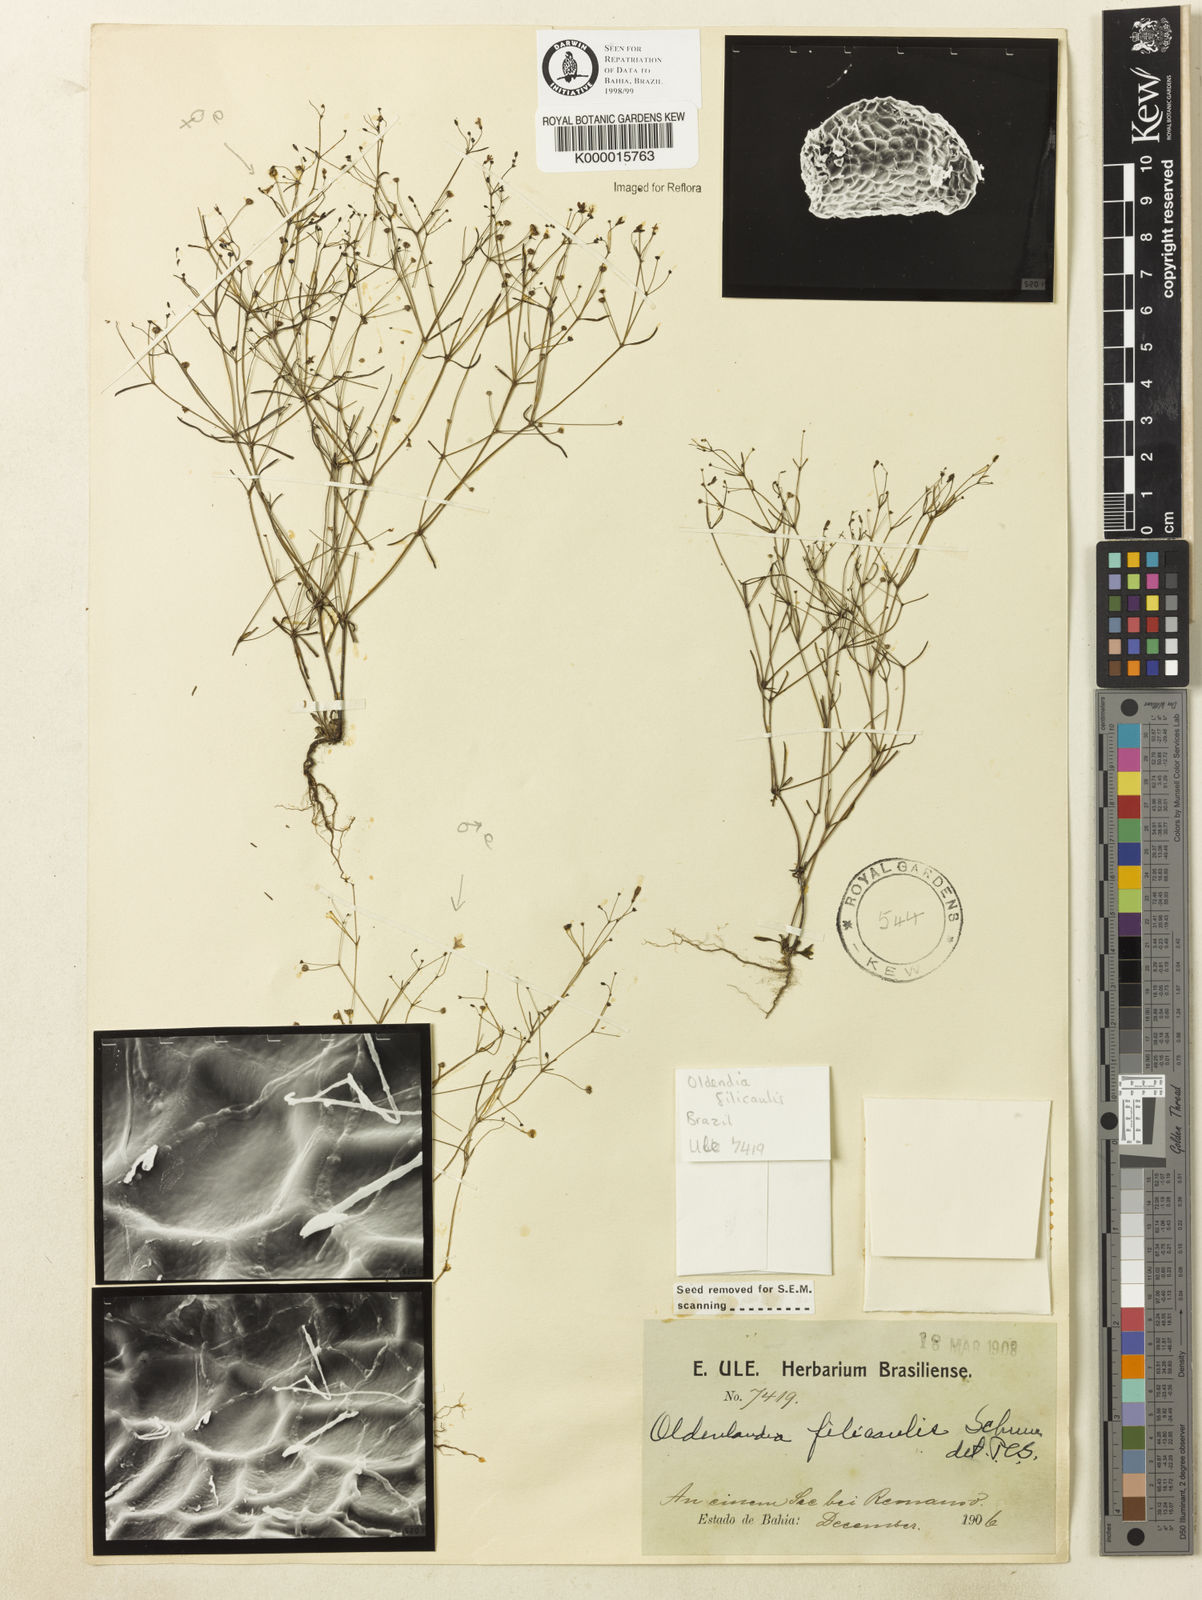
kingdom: Plantae
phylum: Tracheophyta
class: Magnoliopsida
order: Gentianales
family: Rubiaceae
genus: Oldenlandia
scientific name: Oldenlandia filicaulis
